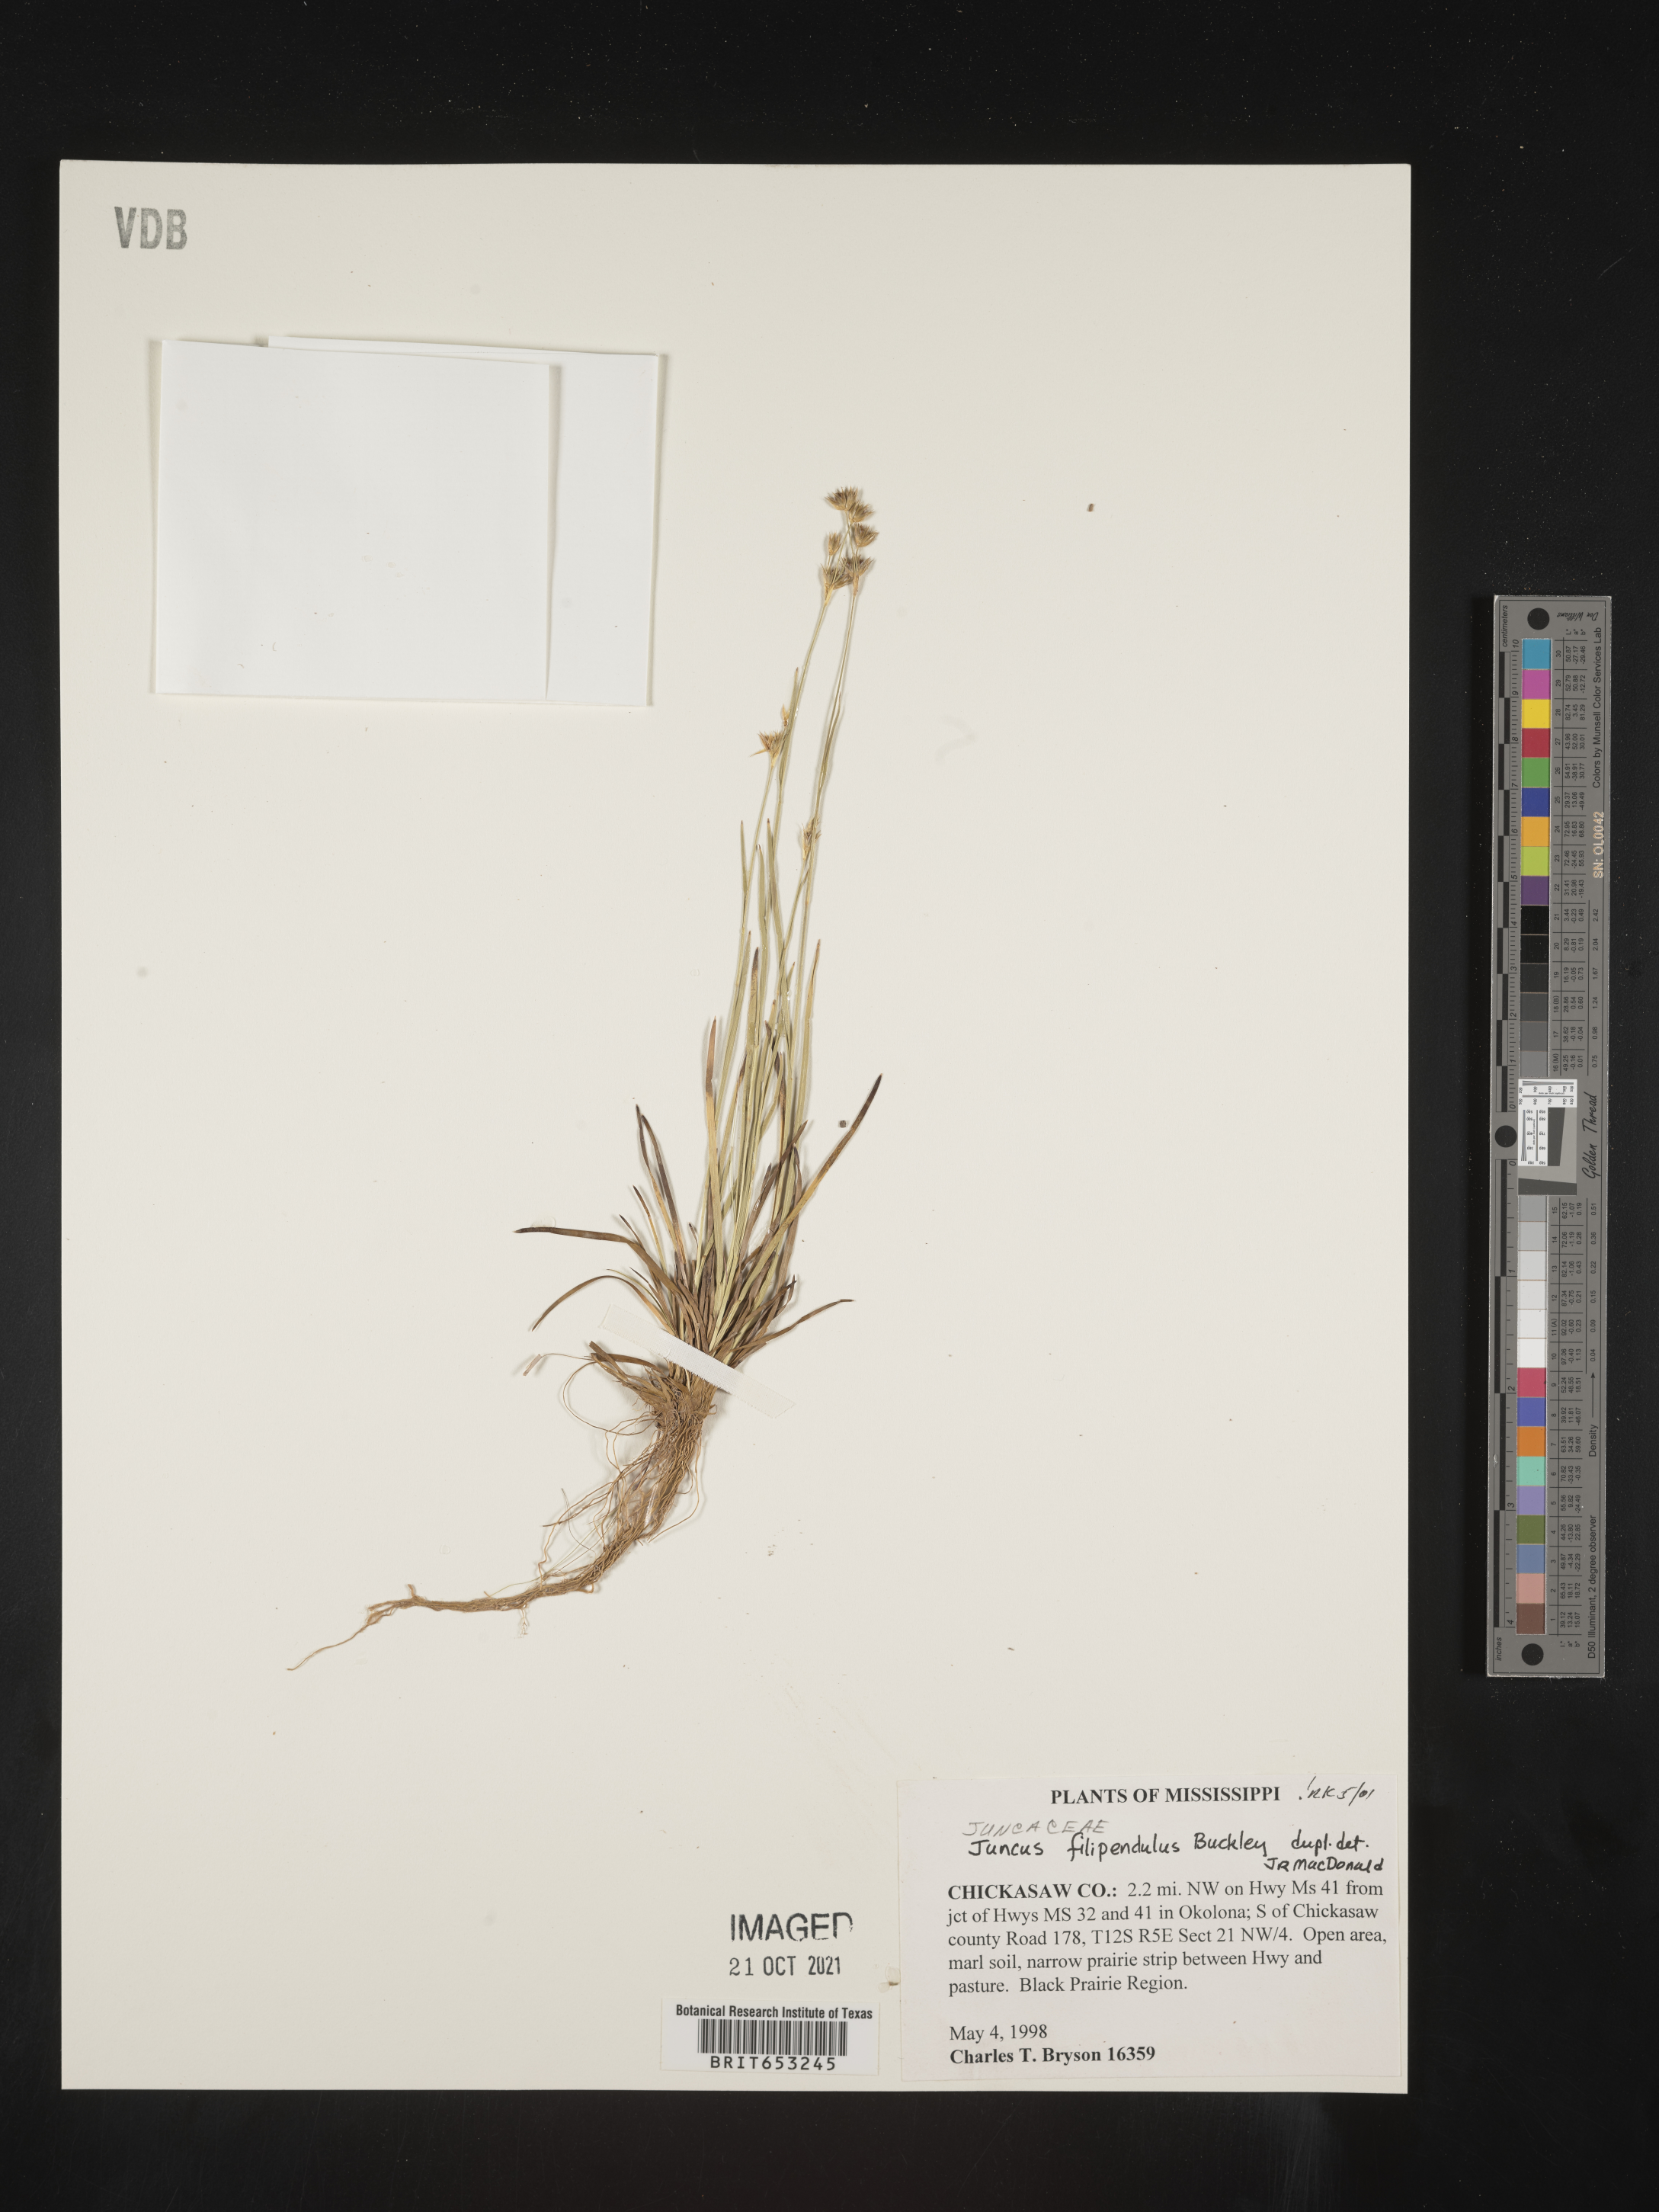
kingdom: Plantae
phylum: Tracheophyta
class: Liliopsida
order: Poales
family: Juncaceae
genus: Juncus
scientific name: Juncus filipendulus
